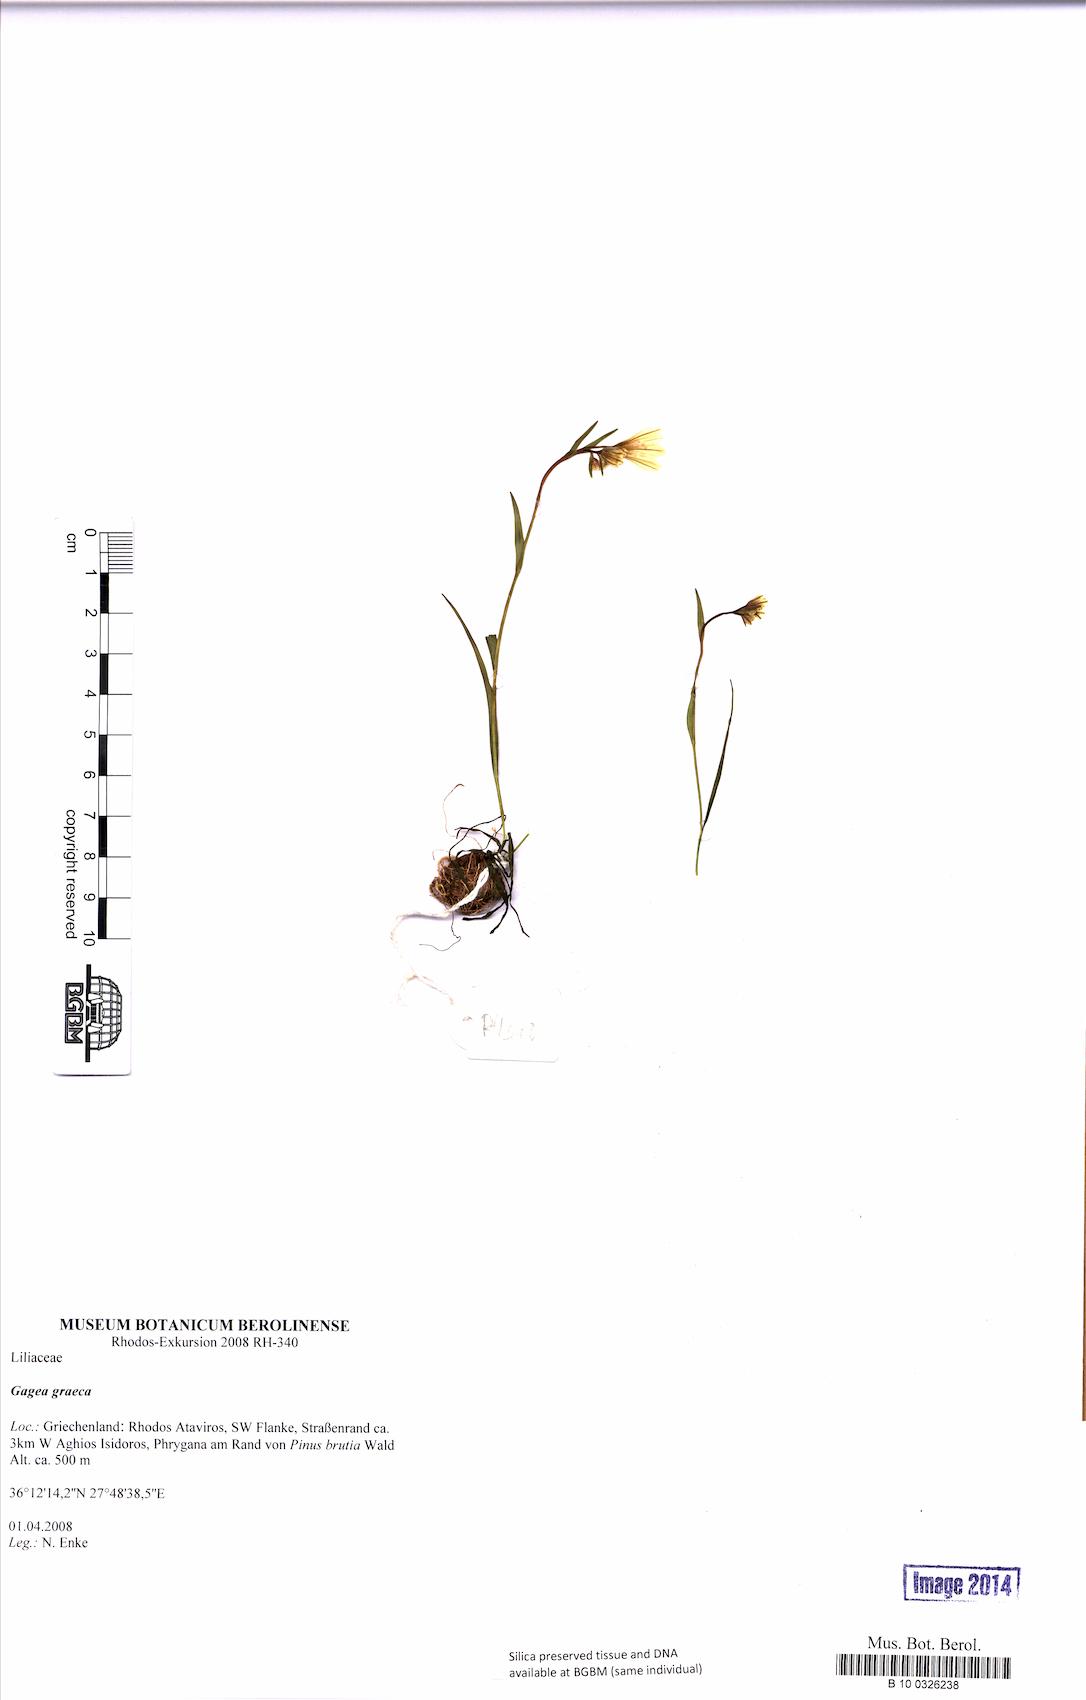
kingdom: Plantae
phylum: Tracheophyta
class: Liliopsida
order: Liliales
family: Liliaceae
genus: Gagea
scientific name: Gagea graeca
